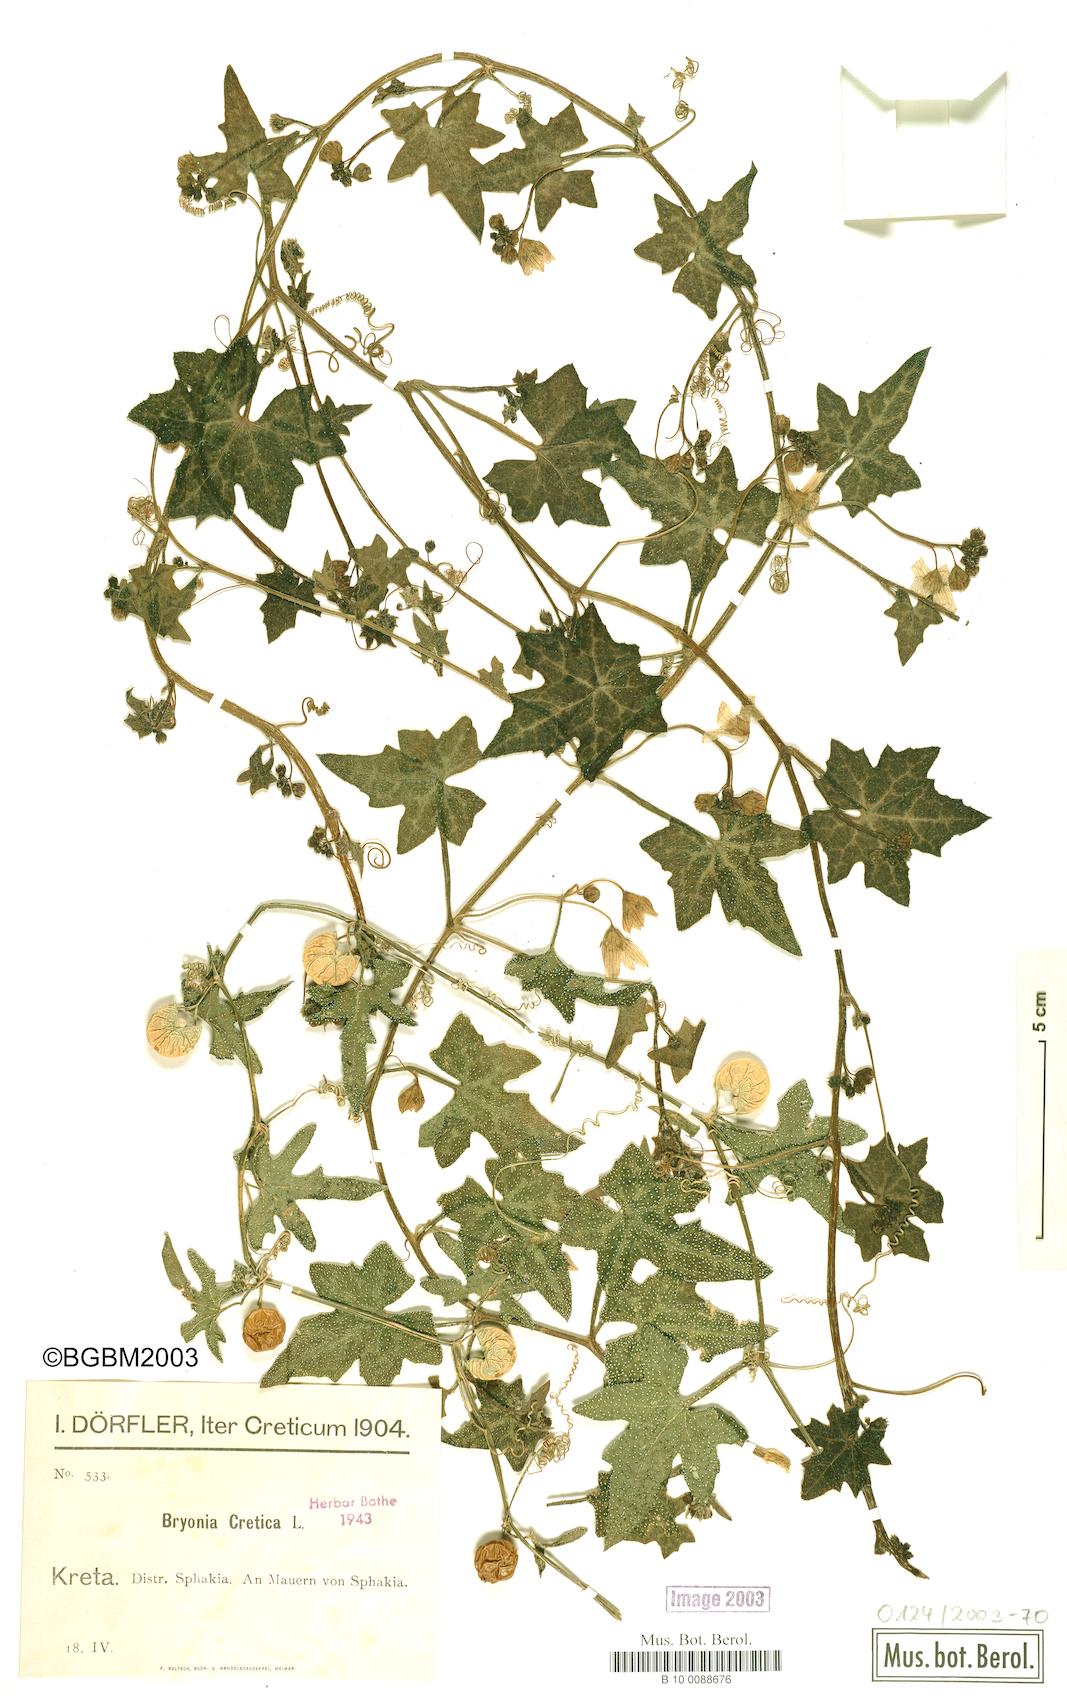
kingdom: Plantae
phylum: Tracheophyta
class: Magnoliopsida
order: Cucurbitales
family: Cucurbitaceae
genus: Bryonia
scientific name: Bryonia cretica
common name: Cretan bryony
